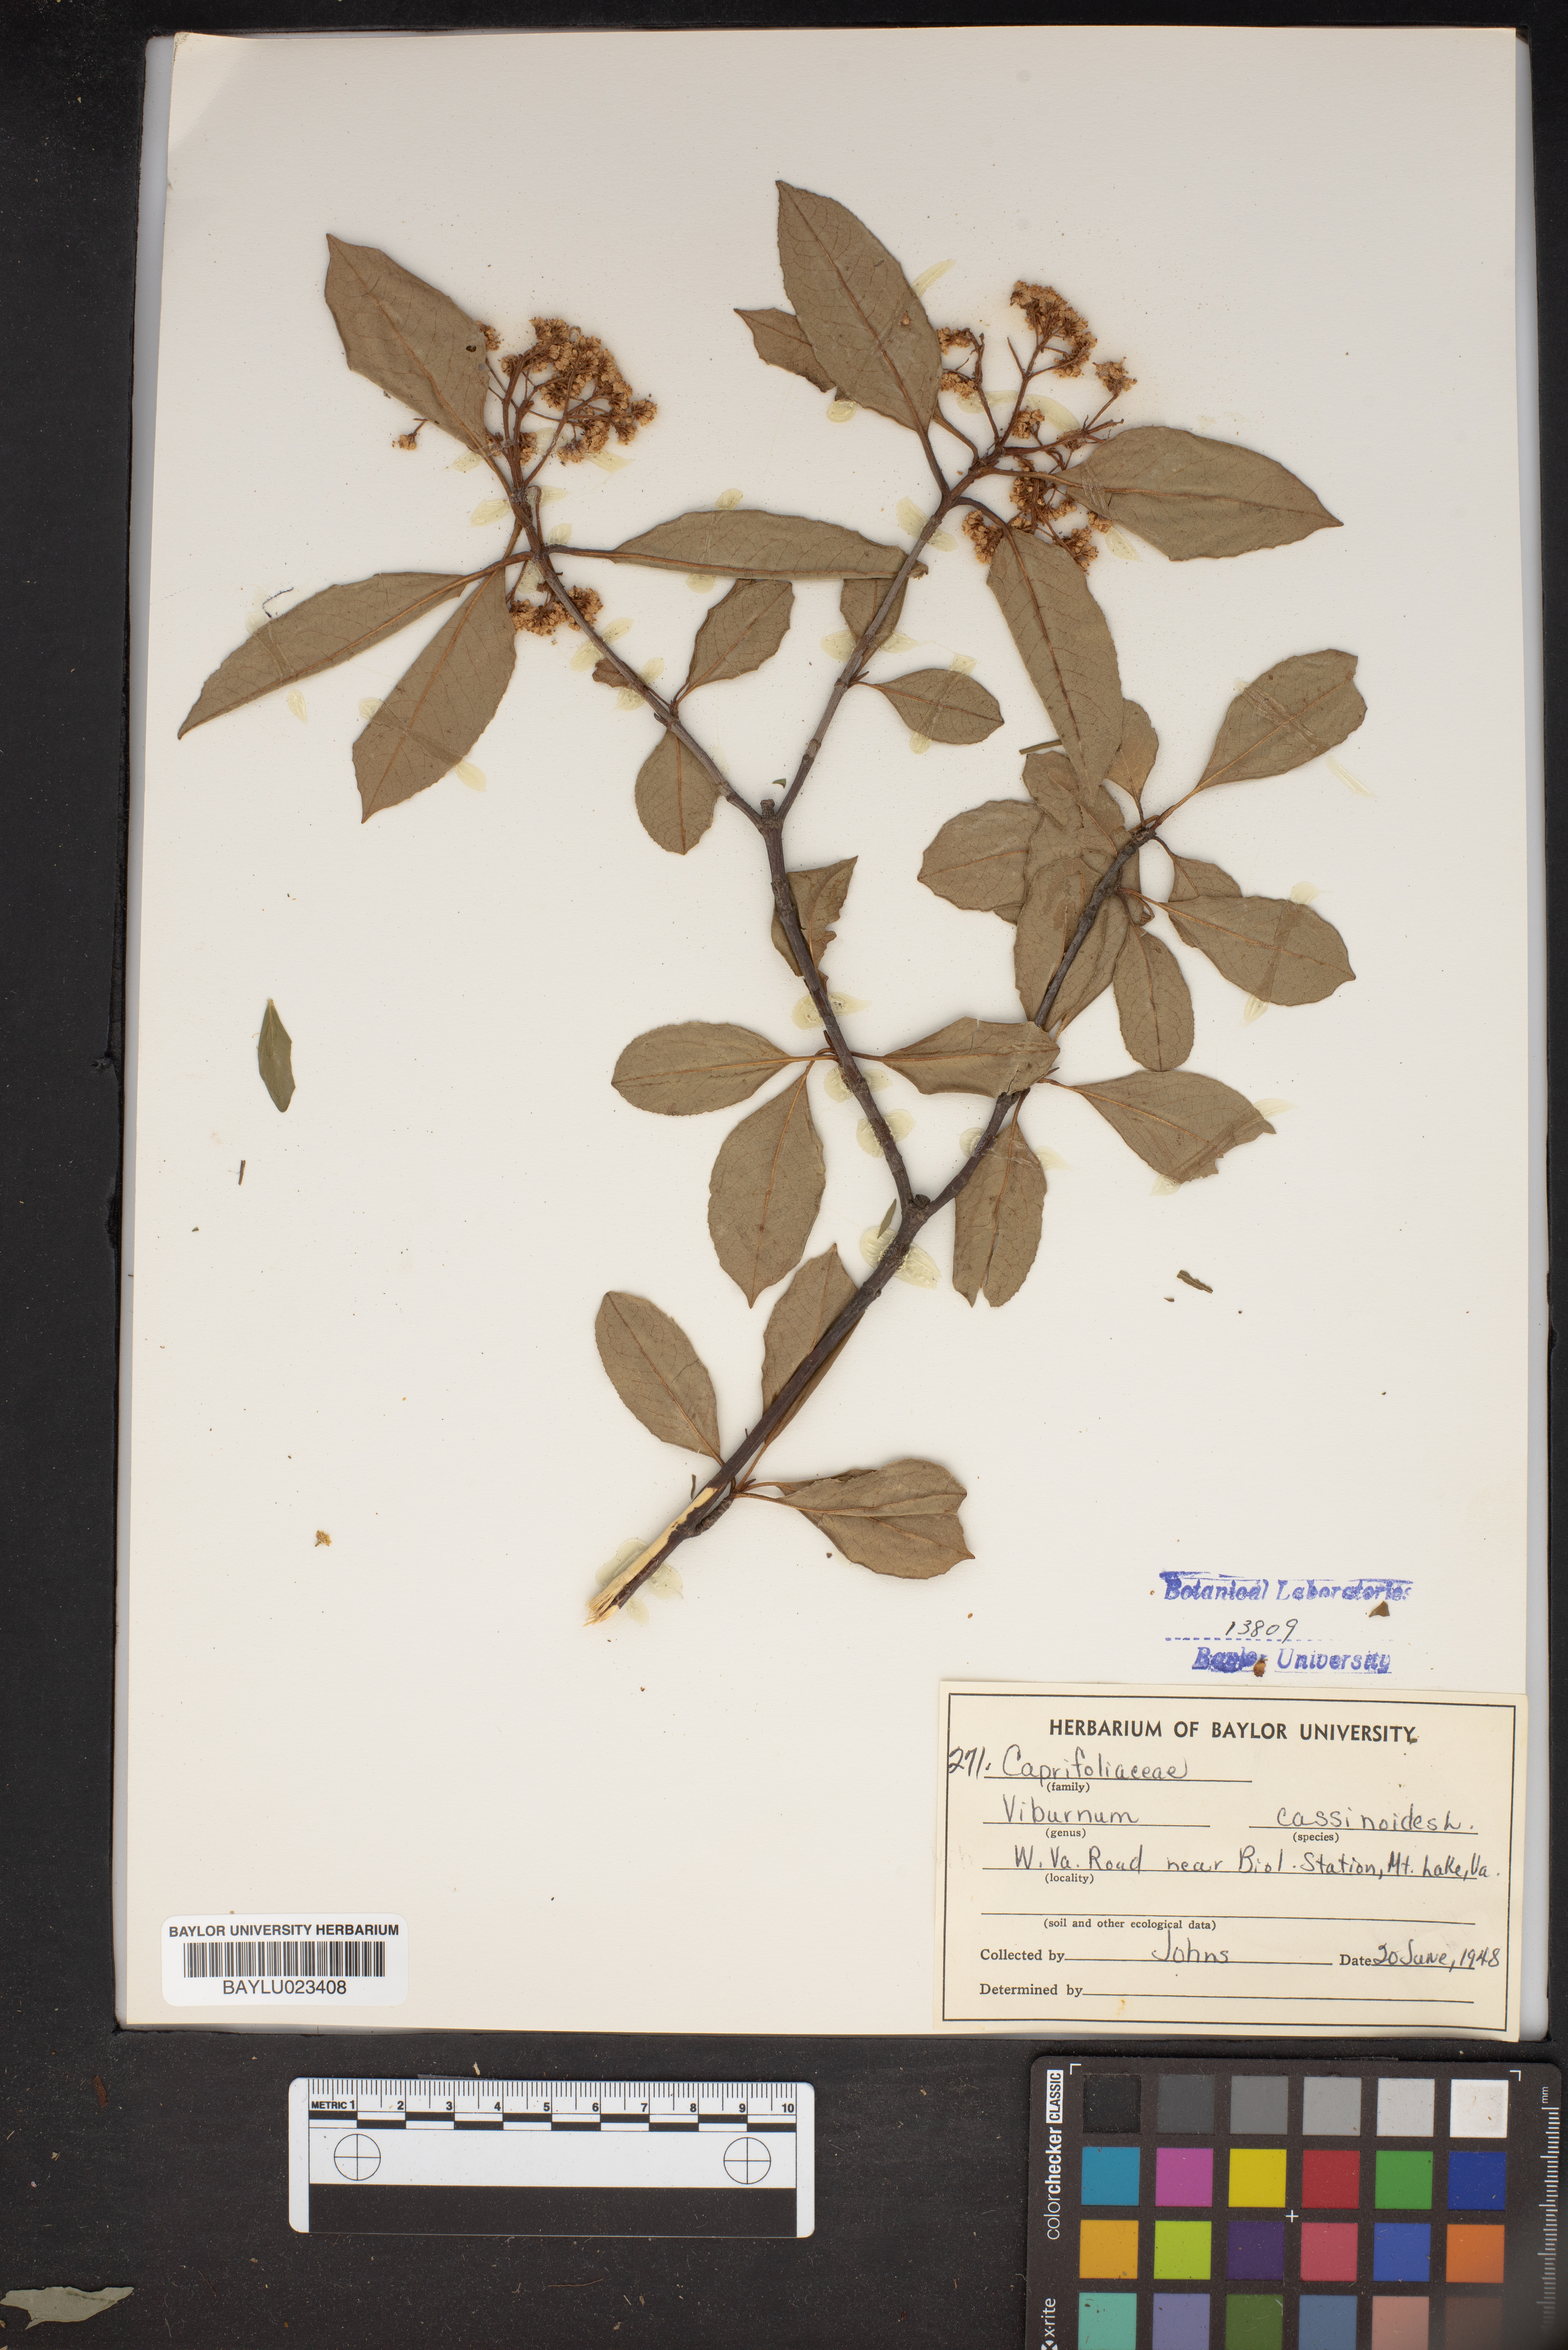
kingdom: Plantae
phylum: Tracheophyta
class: Magnoliopsida
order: Dipsacales
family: Viburnaceae
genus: Viburnum
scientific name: Viburnum cassinoides
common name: Swamp haw
